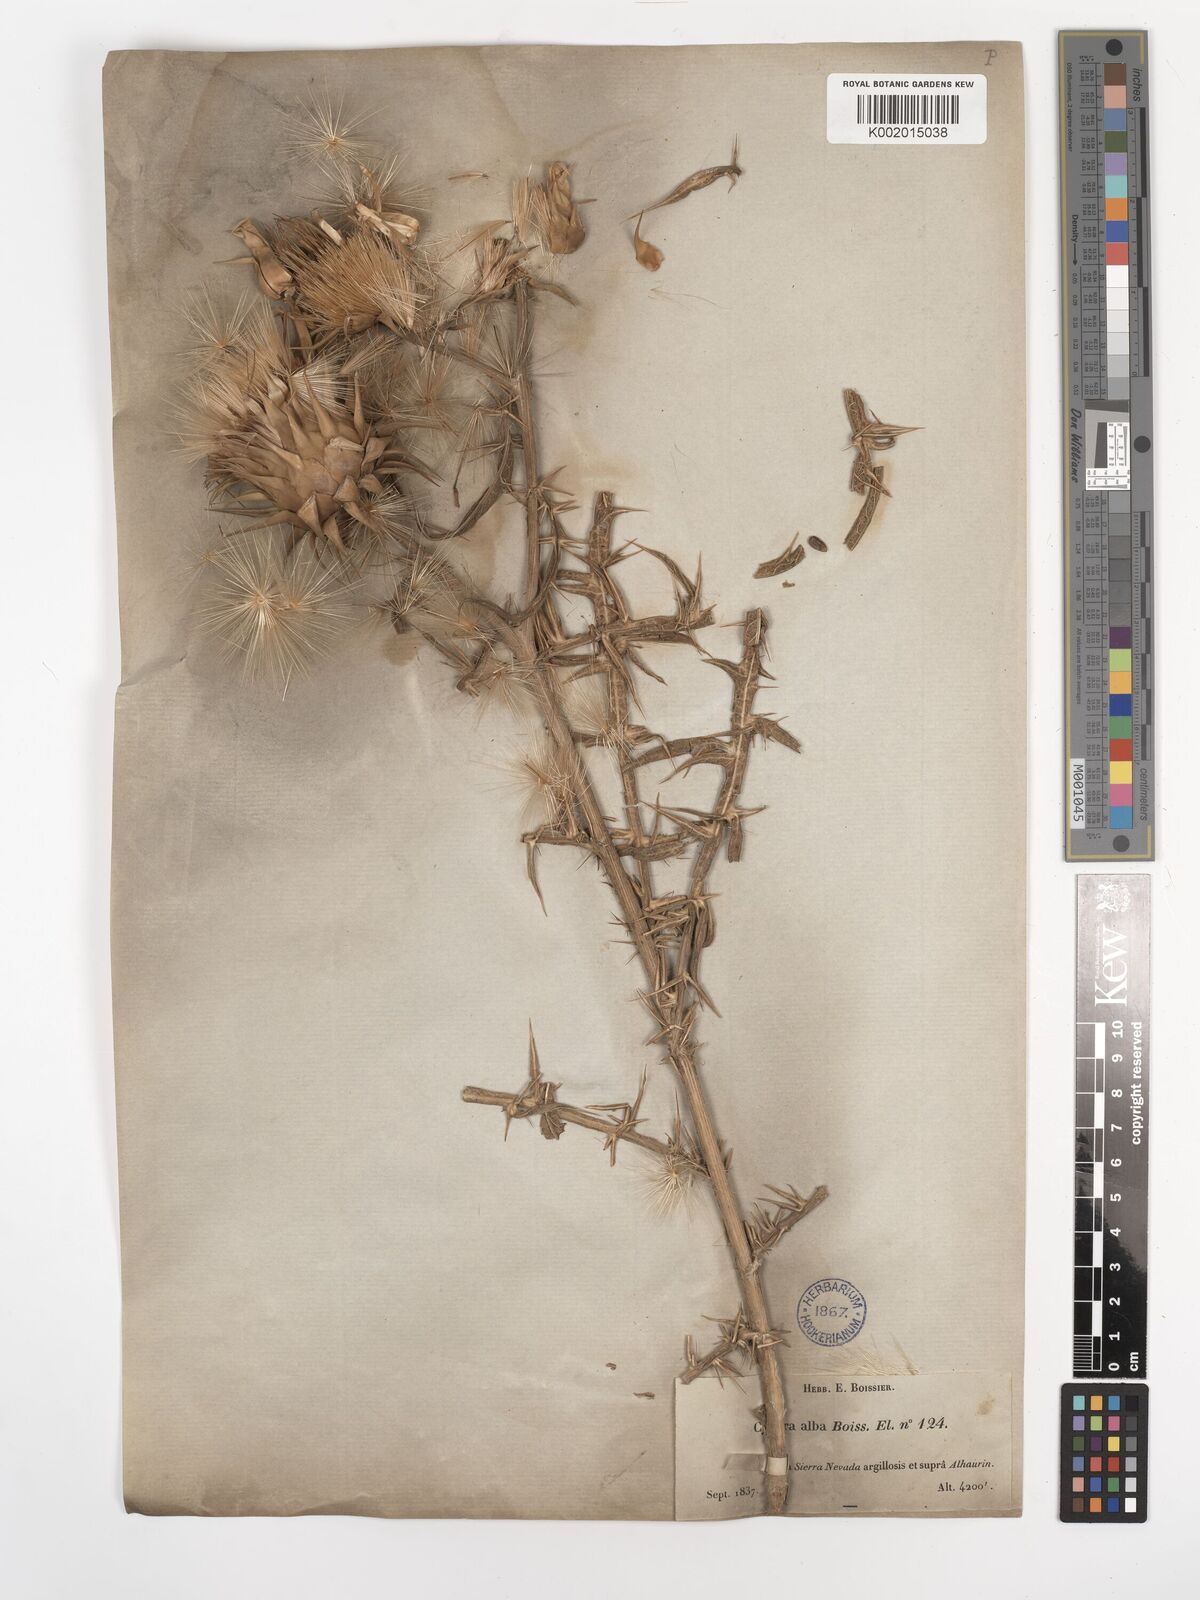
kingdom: Plantae
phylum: Tracheophyta
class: Magnoliopsida
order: Asterales
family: Asteraceae
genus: Cynara
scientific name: Cynara baetica
